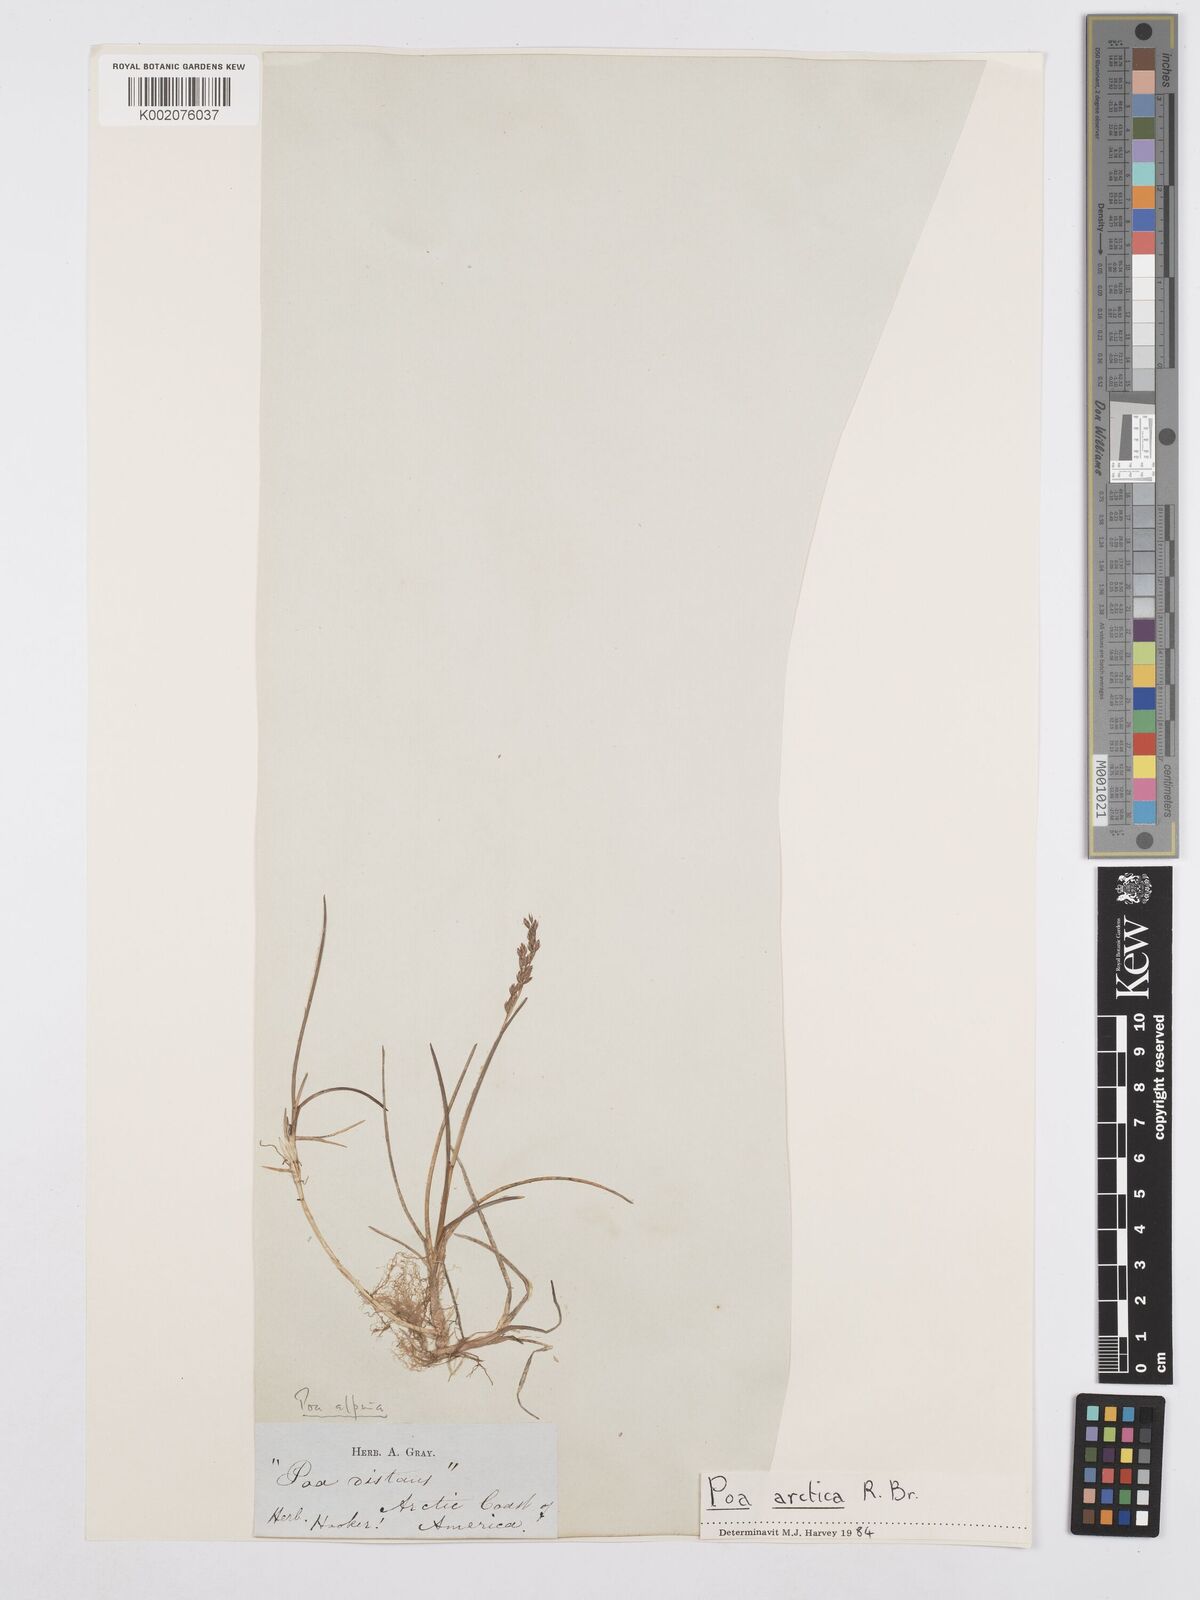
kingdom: Plantae
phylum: Tracheophyta
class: Liliopsida
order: Poales
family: Poaceae
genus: Poa
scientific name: Poa alpina
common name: Alpine bluegrass
